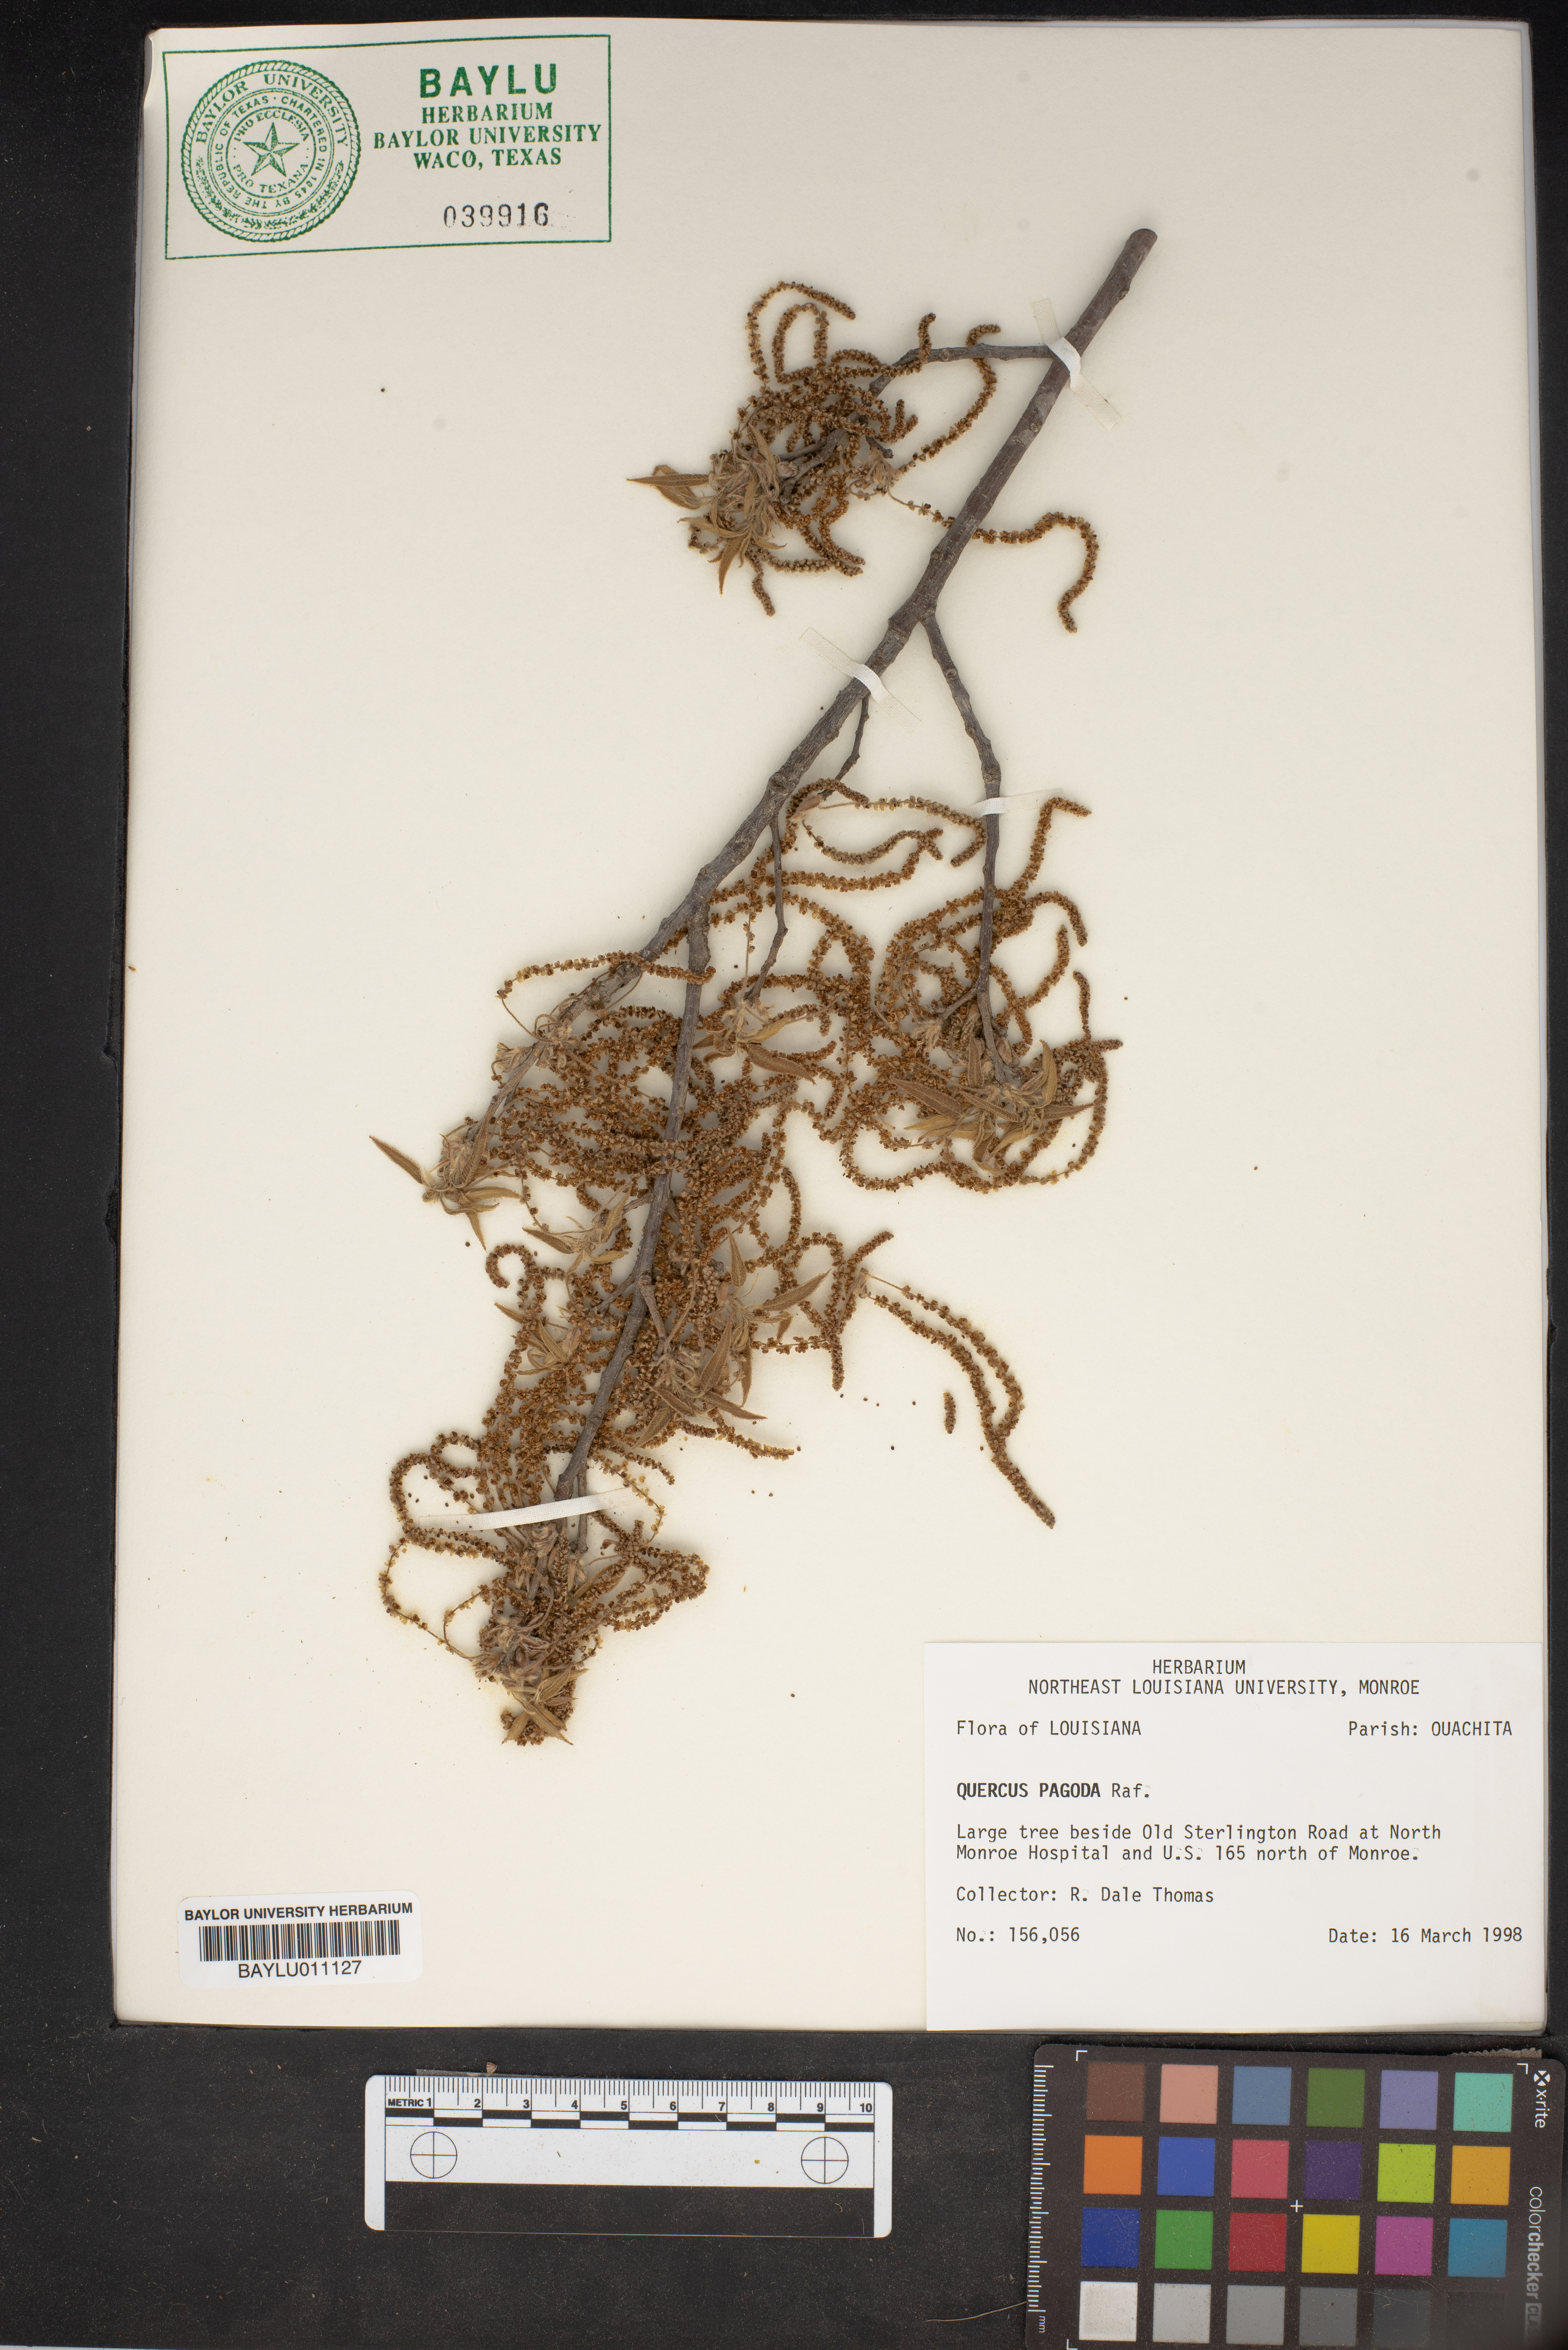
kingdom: Plantae
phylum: Tracheophyta
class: Magnoliopsida
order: Fagales
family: Fagaceae
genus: Quercus
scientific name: Quercus pagoda
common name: Cherrybark oak
